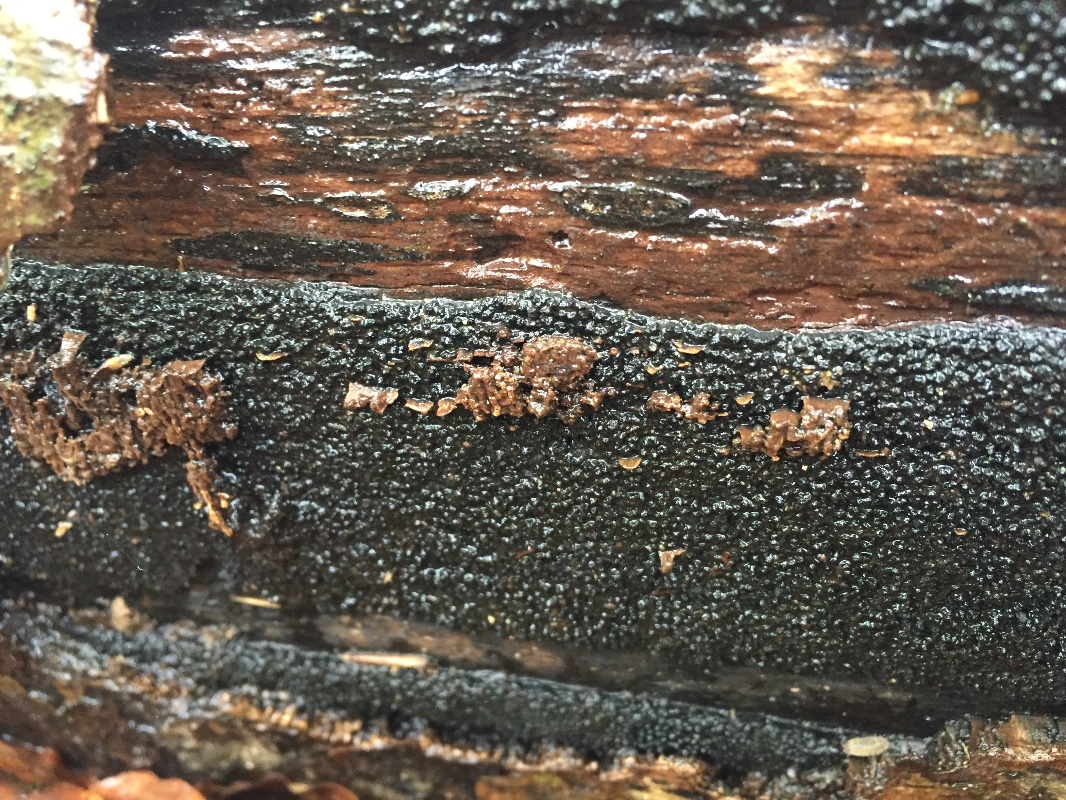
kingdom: Fungi
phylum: Ascomycota
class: Sordariomycetes
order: Xylariales
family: Diatrypaceae
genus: Eutypa
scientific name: Eutypa spinosa
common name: grov kulskorpe
